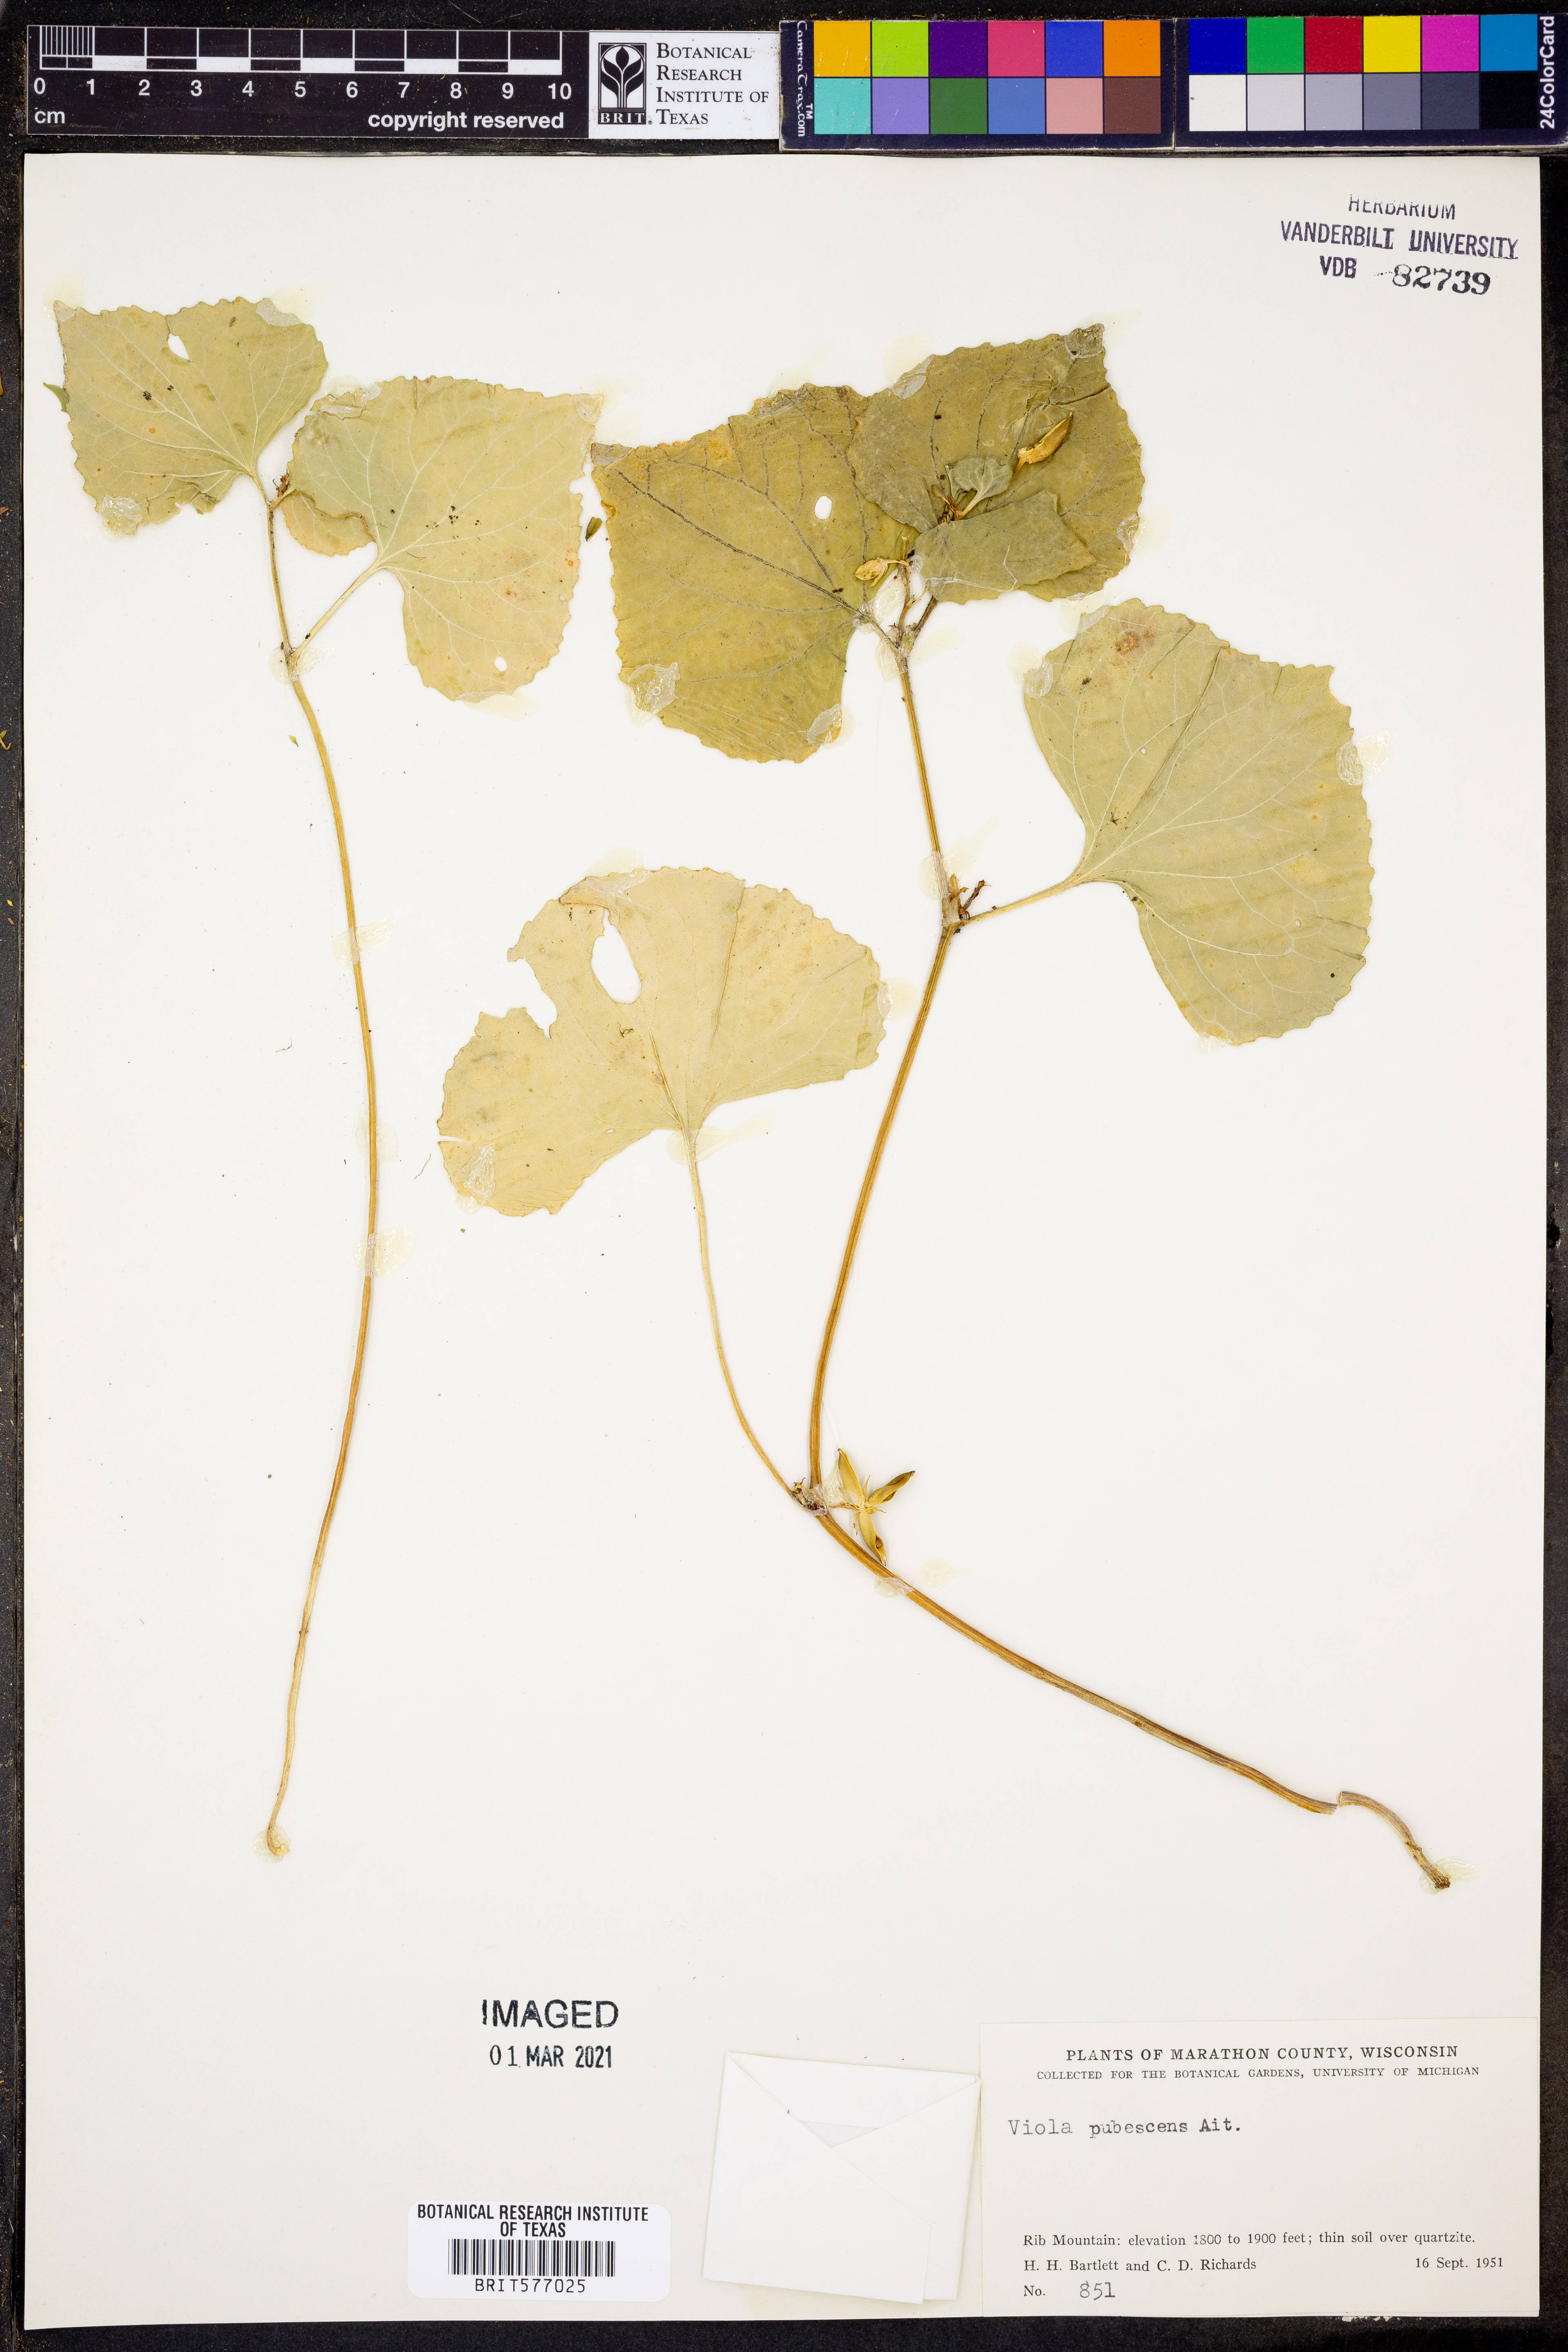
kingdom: Plantae
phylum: Tracheophyta
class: Magnoliopsida
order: Malpighiales
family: Violaceae
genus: Viola
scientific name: Viola pubescens
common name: Yellow forest violet
